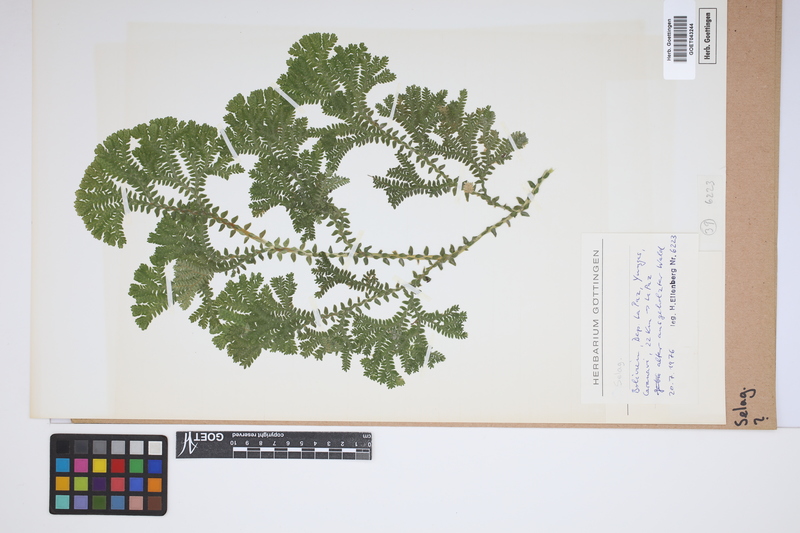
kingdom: Plantae
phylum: Tracheophyta
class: Lycopodiopsida
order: Selaginellales
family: Selaginellaceae
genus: Selaginella
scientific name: Selaginella
